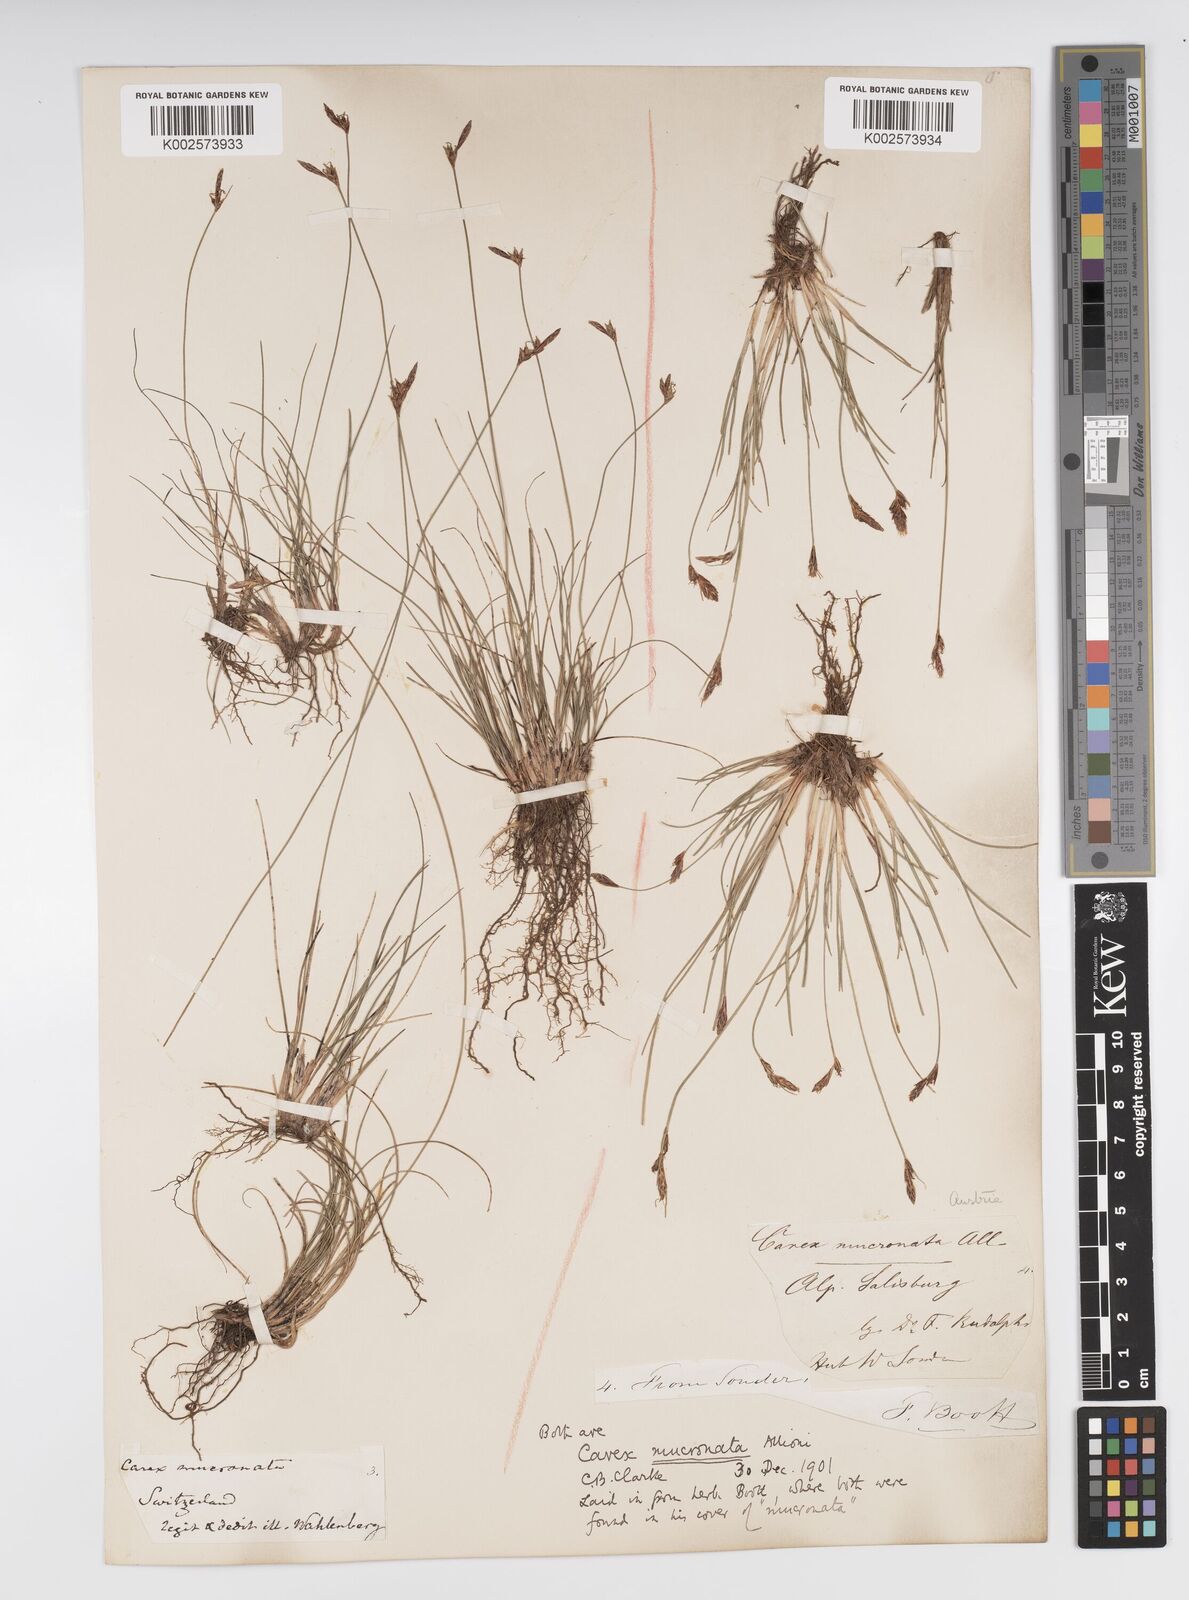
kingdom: Plantae
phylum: Tracheophyta
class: Liliopsida
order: Poales
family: Cyperaceae
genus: Carex
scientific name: Carex mucronata
